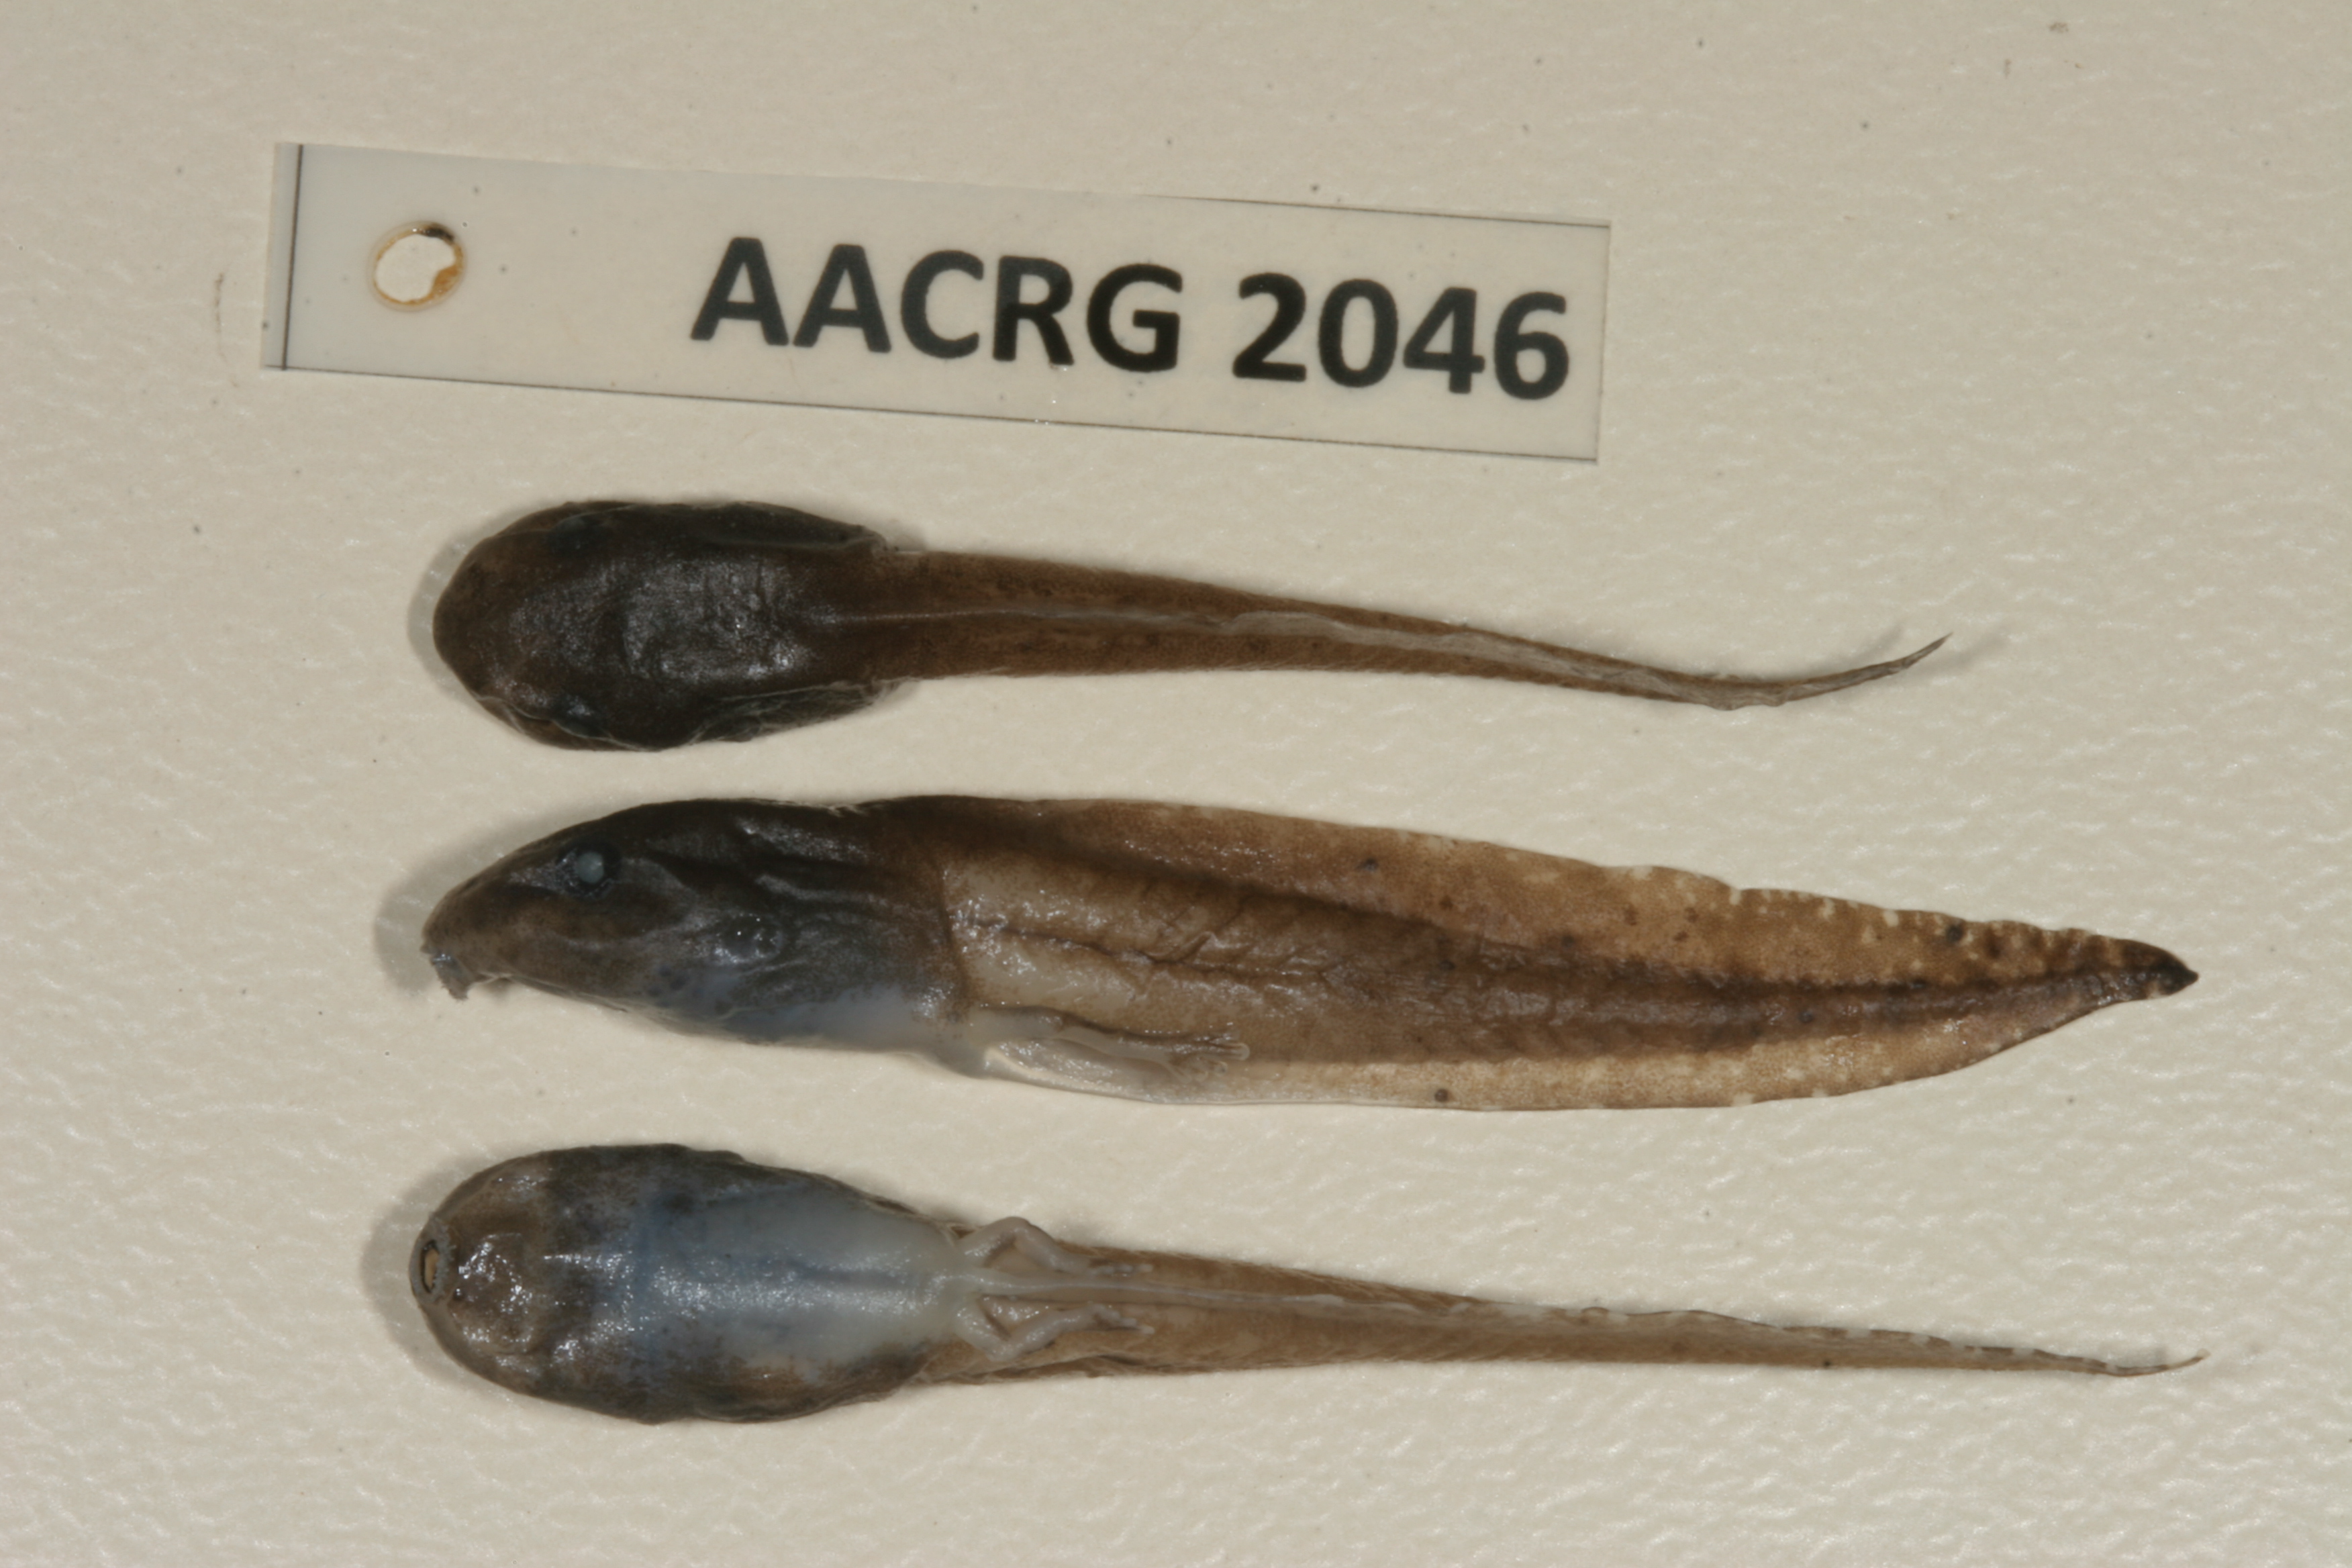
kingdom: Animalia
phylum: Chordata
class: Amphibia
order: Anura
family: Hyperoliidae
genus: Hyperolius
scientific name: Hyperolius marmoratus
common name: Painted reed frog
